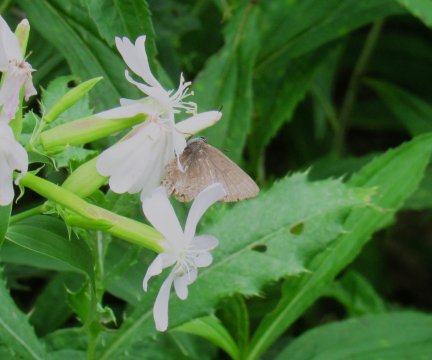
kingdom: Animalia
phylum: Arthropoda
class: Insecta
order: Lepidoptera
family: Lycaenidae
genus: Satyrium
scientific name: Satyrium
